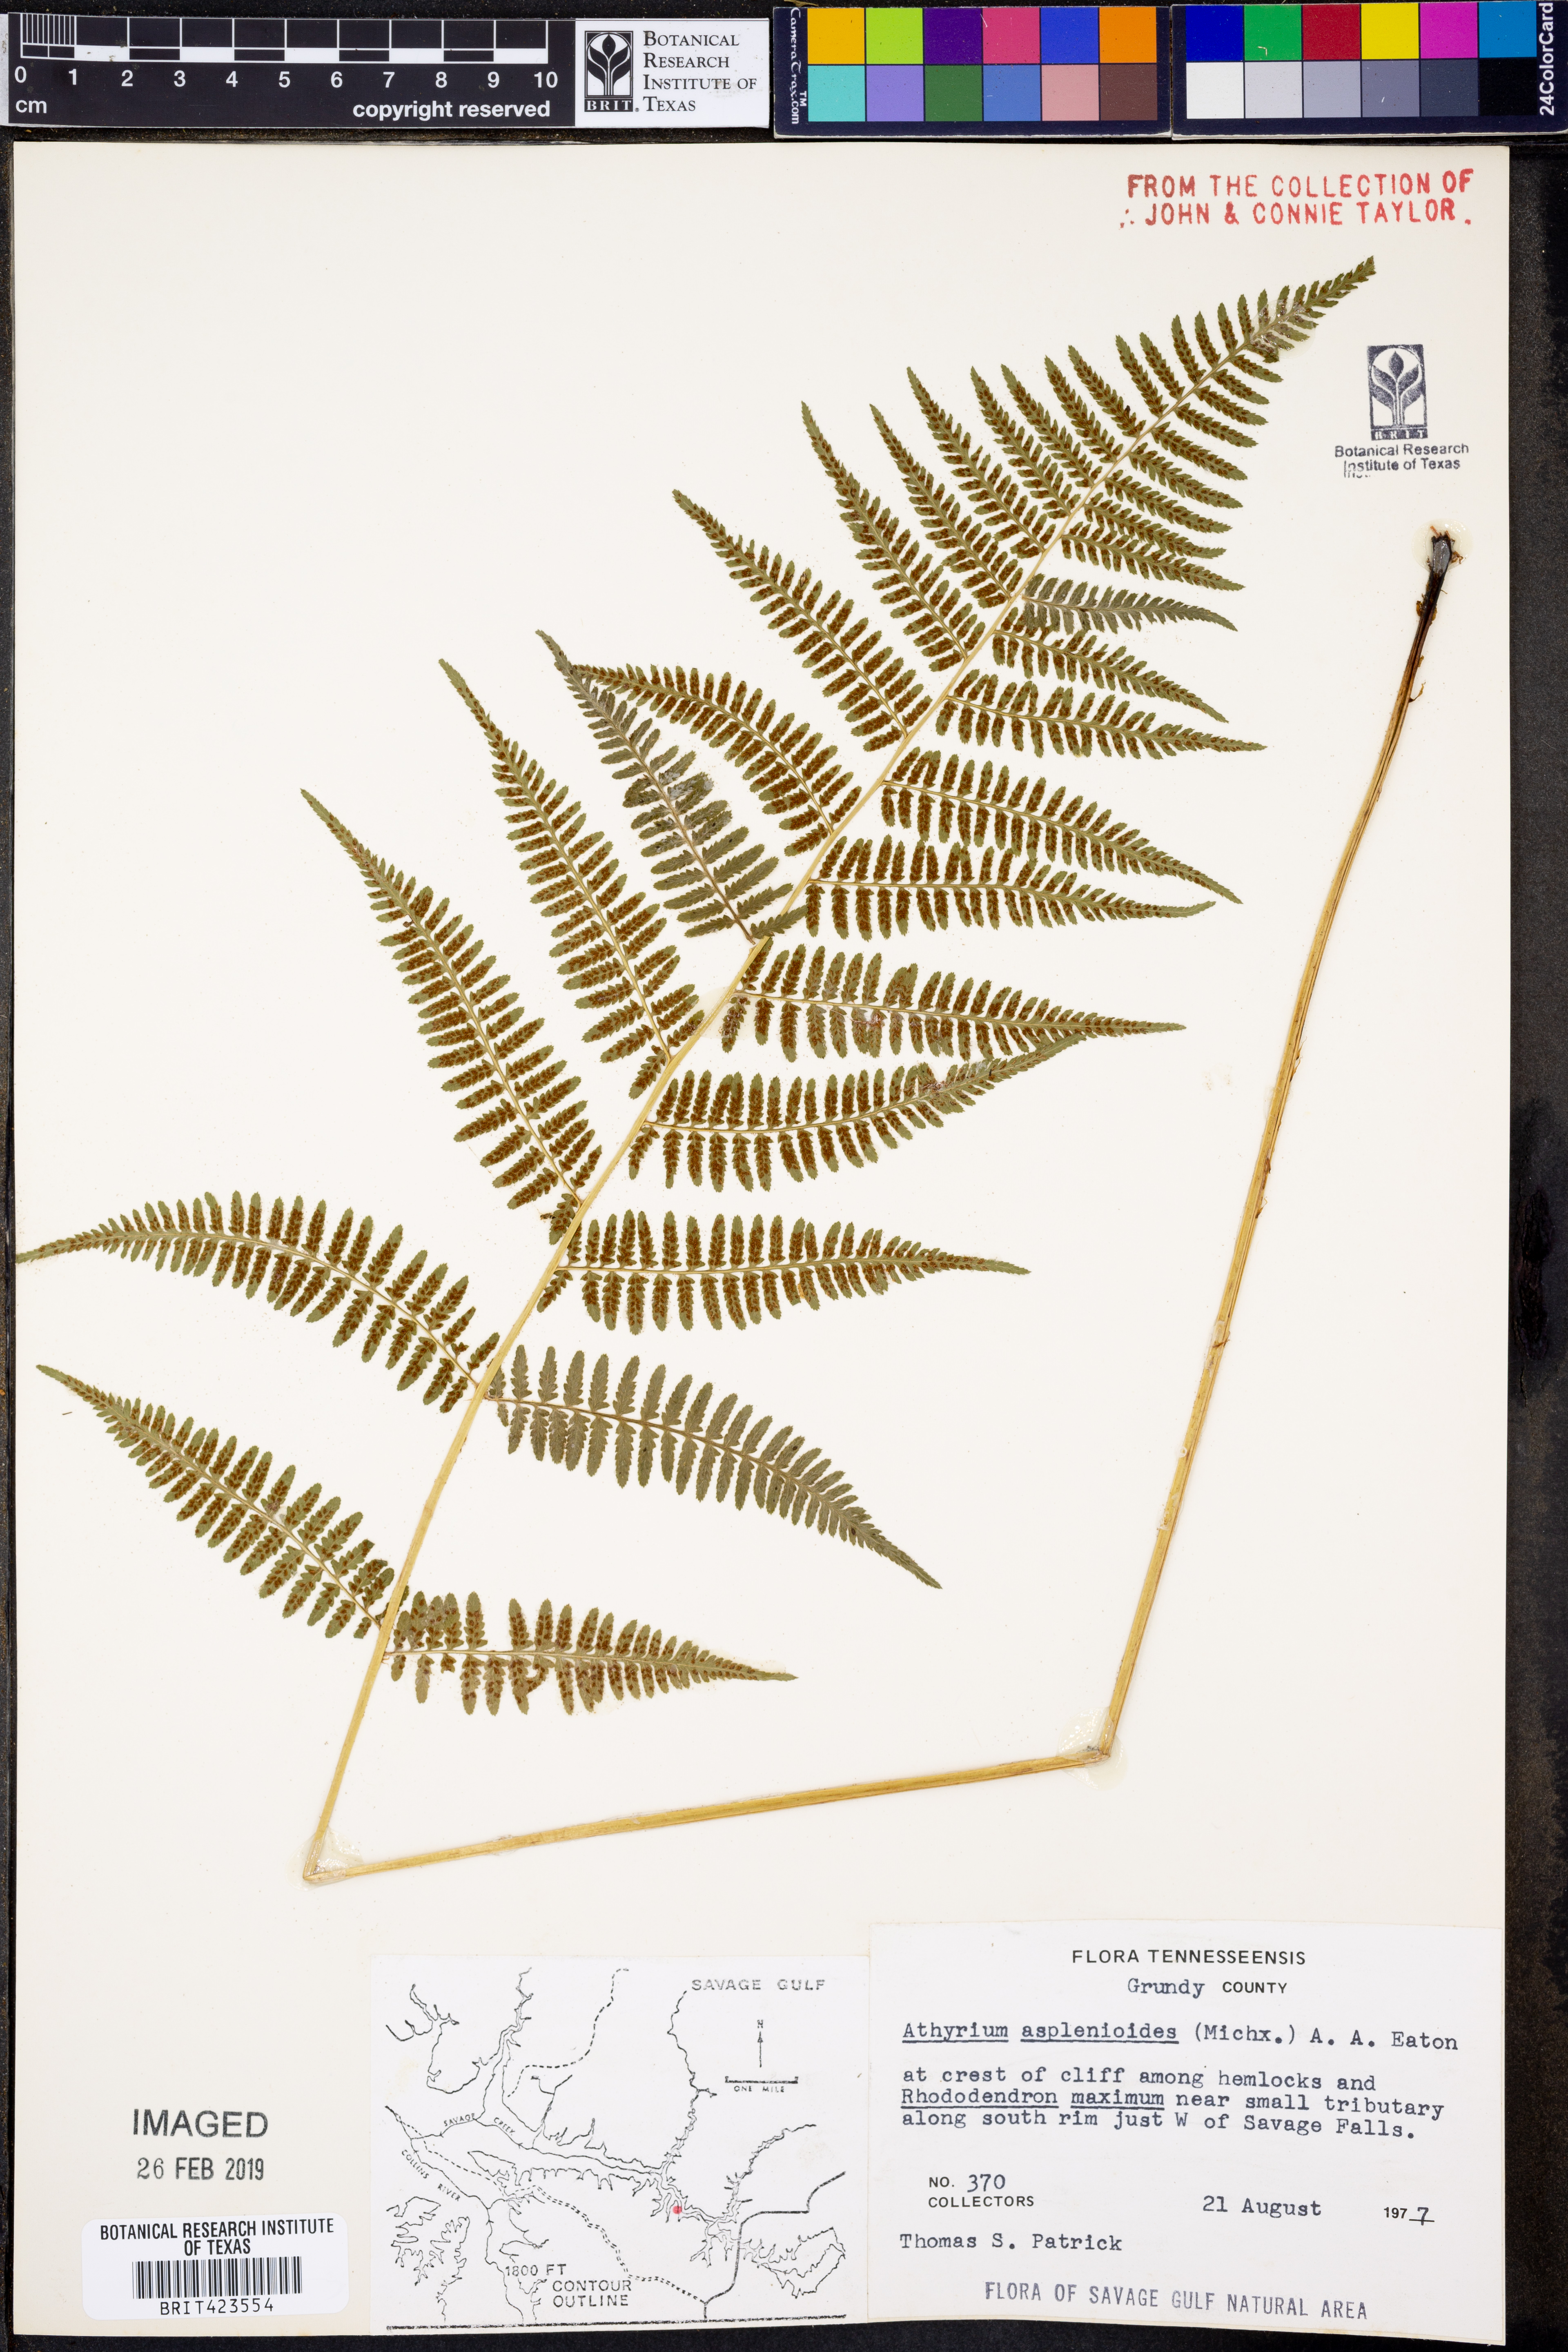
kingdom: Plantae
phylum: Tracheophyta
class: Polypodiopsida
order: Polypodiales
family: Athyriaceae
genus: Athyrium
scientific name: Athyrium asplenioides
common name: Southern lady fern
